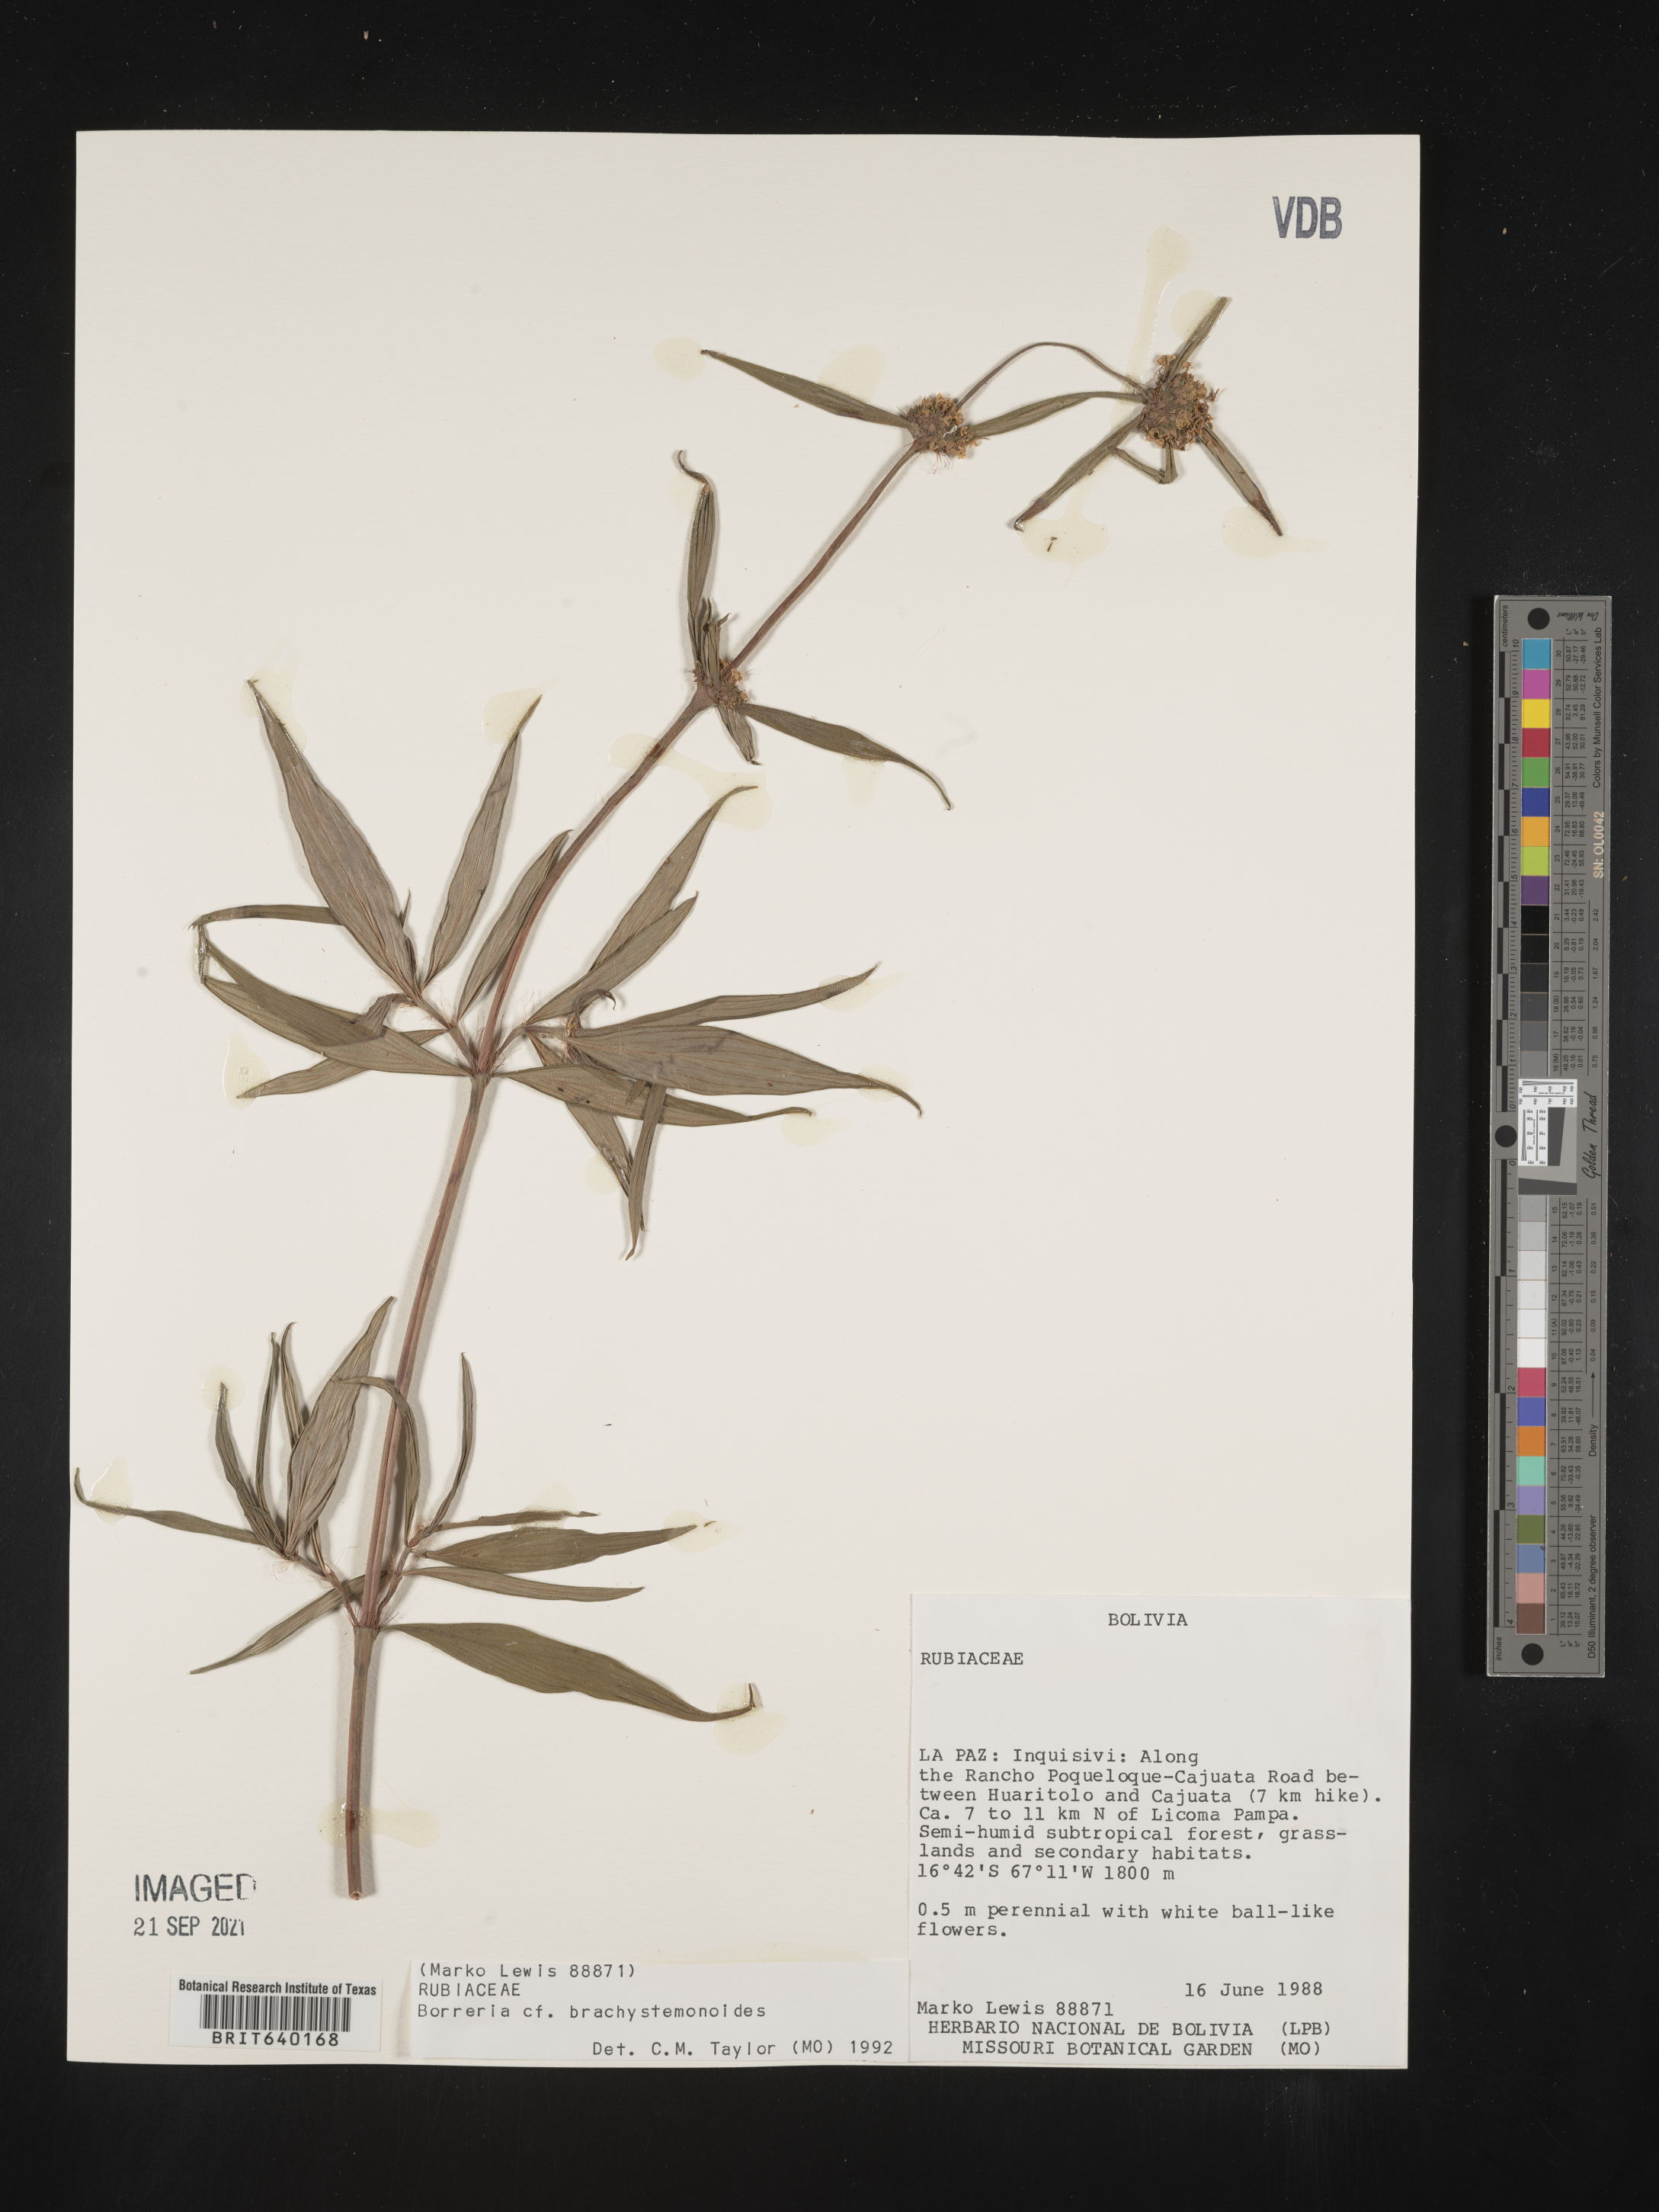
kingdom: Plantae
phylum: Tracheophyta
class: Magnoliopsida
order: Gentianales
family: Rubiaceae
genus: Spermacoce
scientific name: Spermacoce
